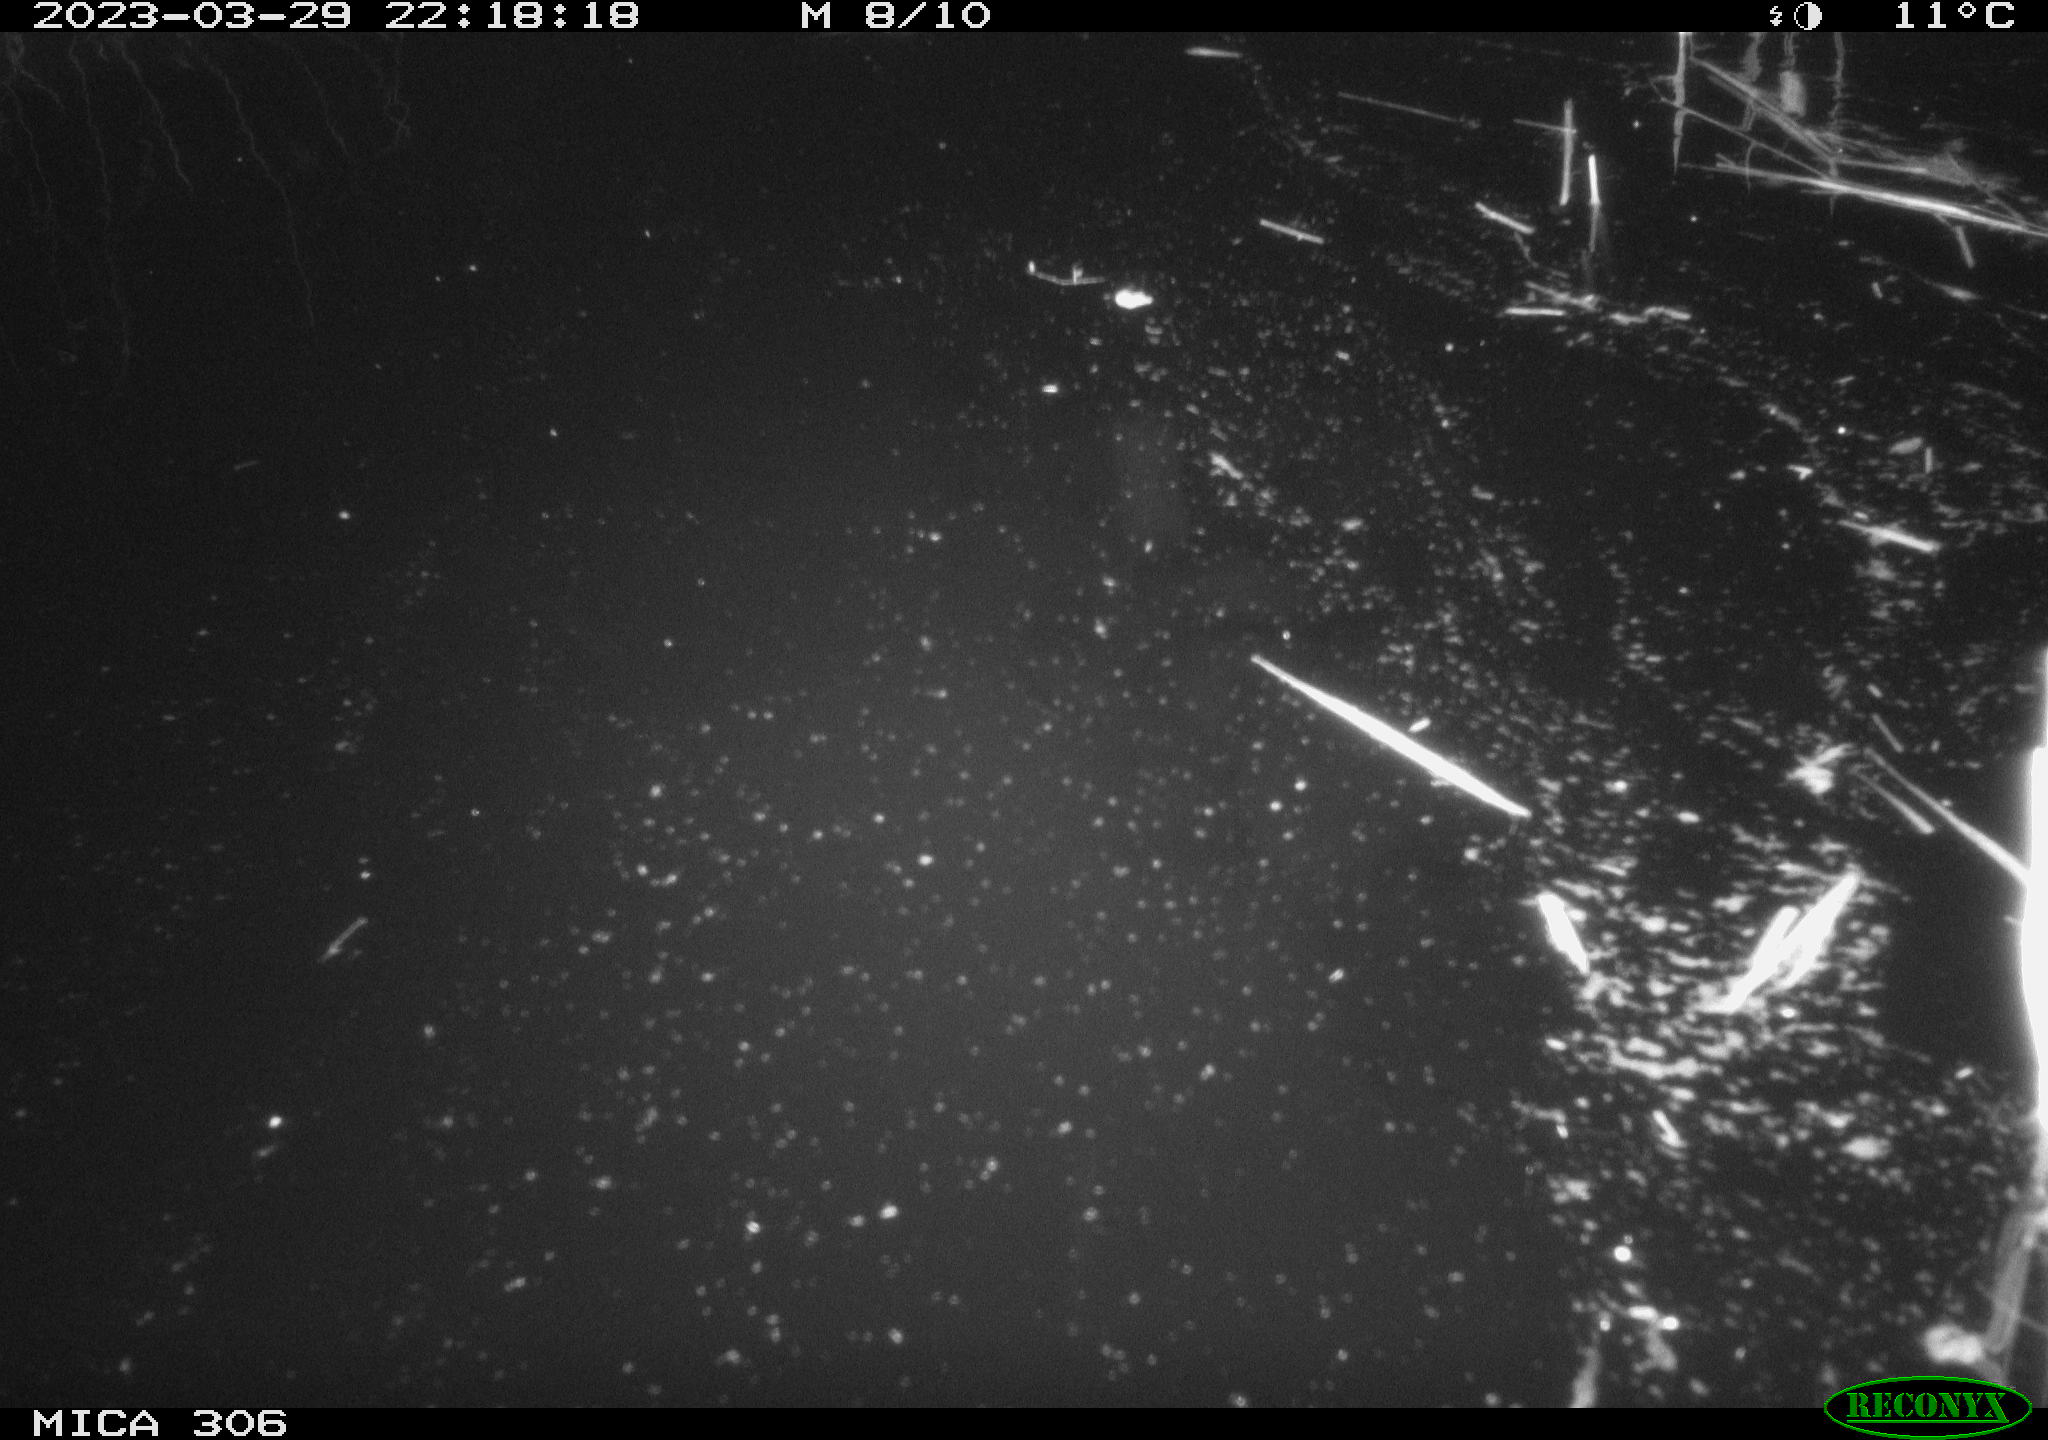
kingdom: Animalia
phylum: Chordata
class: Aves
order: Anseriformes
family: Anatidae
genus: Anas
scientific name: Anas
